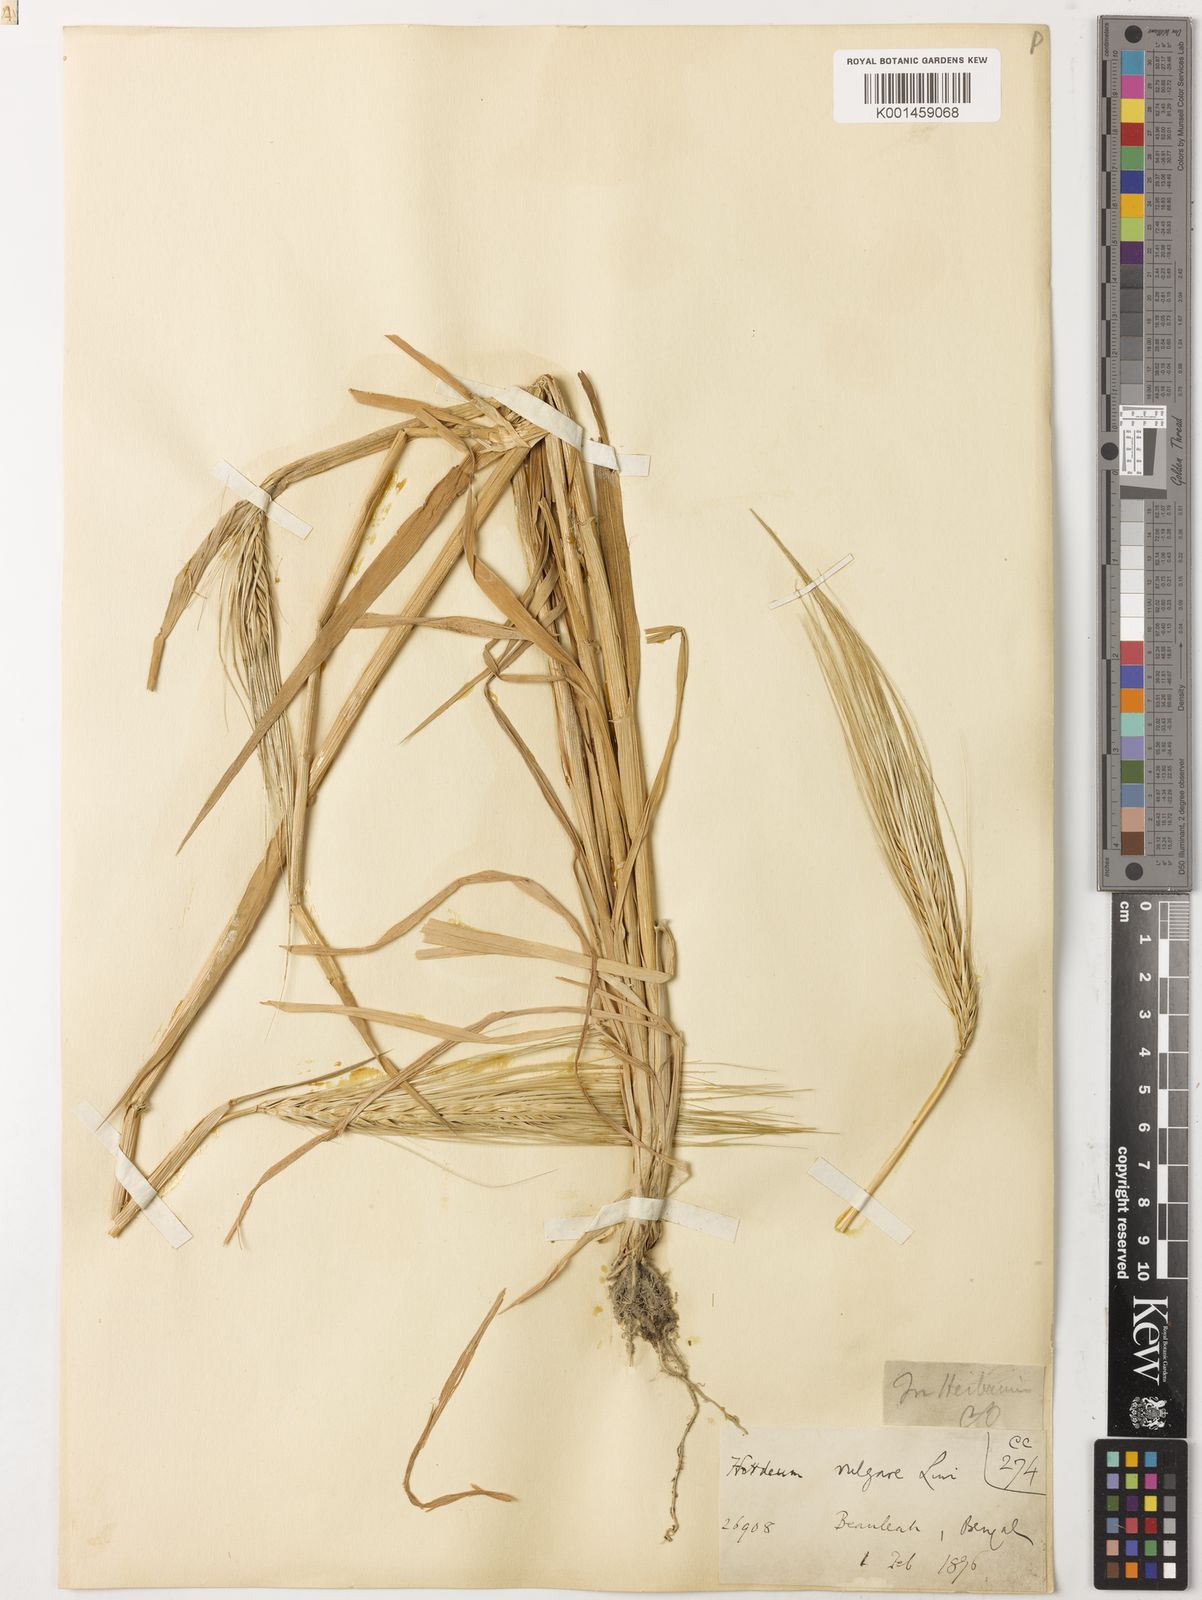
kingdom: Plantae
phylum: Tracheophyta
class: Liliopsida
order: Poales
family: Poaceae
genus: Hordeum
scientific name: Hordeum vulgare
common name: Common barley
